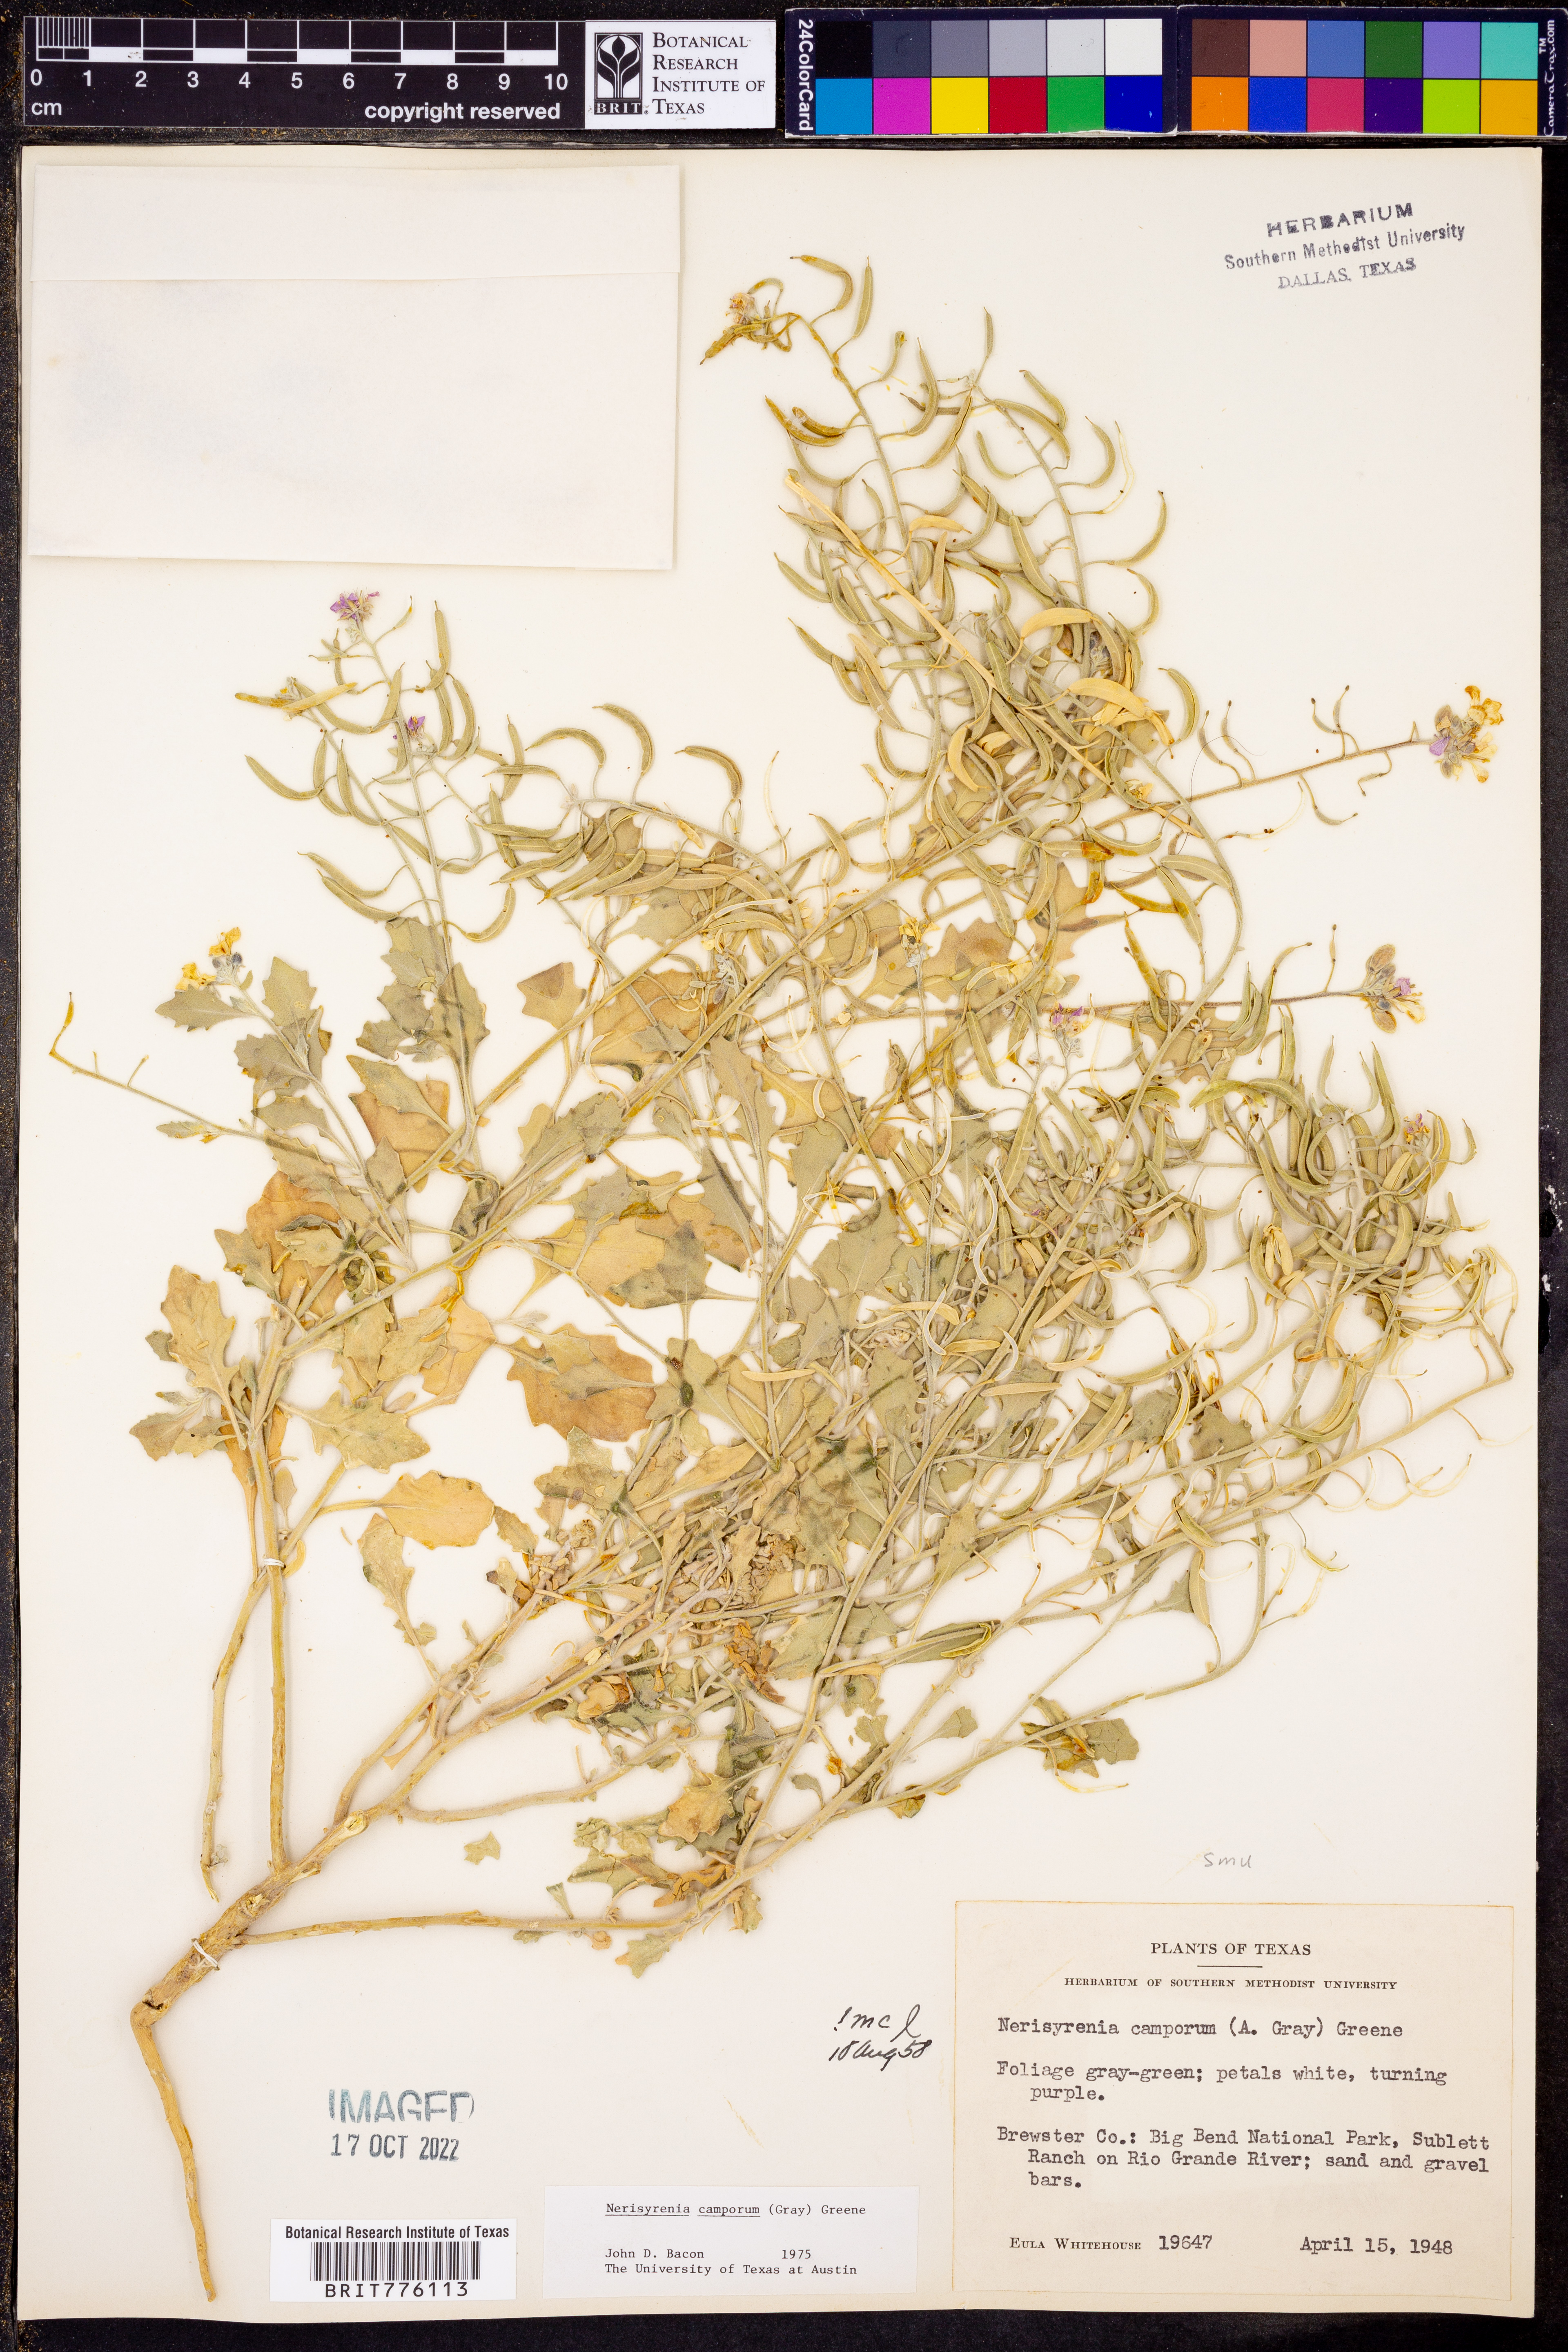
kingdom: Plantae
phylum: Tracheophyta
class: Magnoliopsida
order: Brassicales
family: Brassicaceae
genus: Nerisyrenia
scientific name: Nerisyrenia camporum
